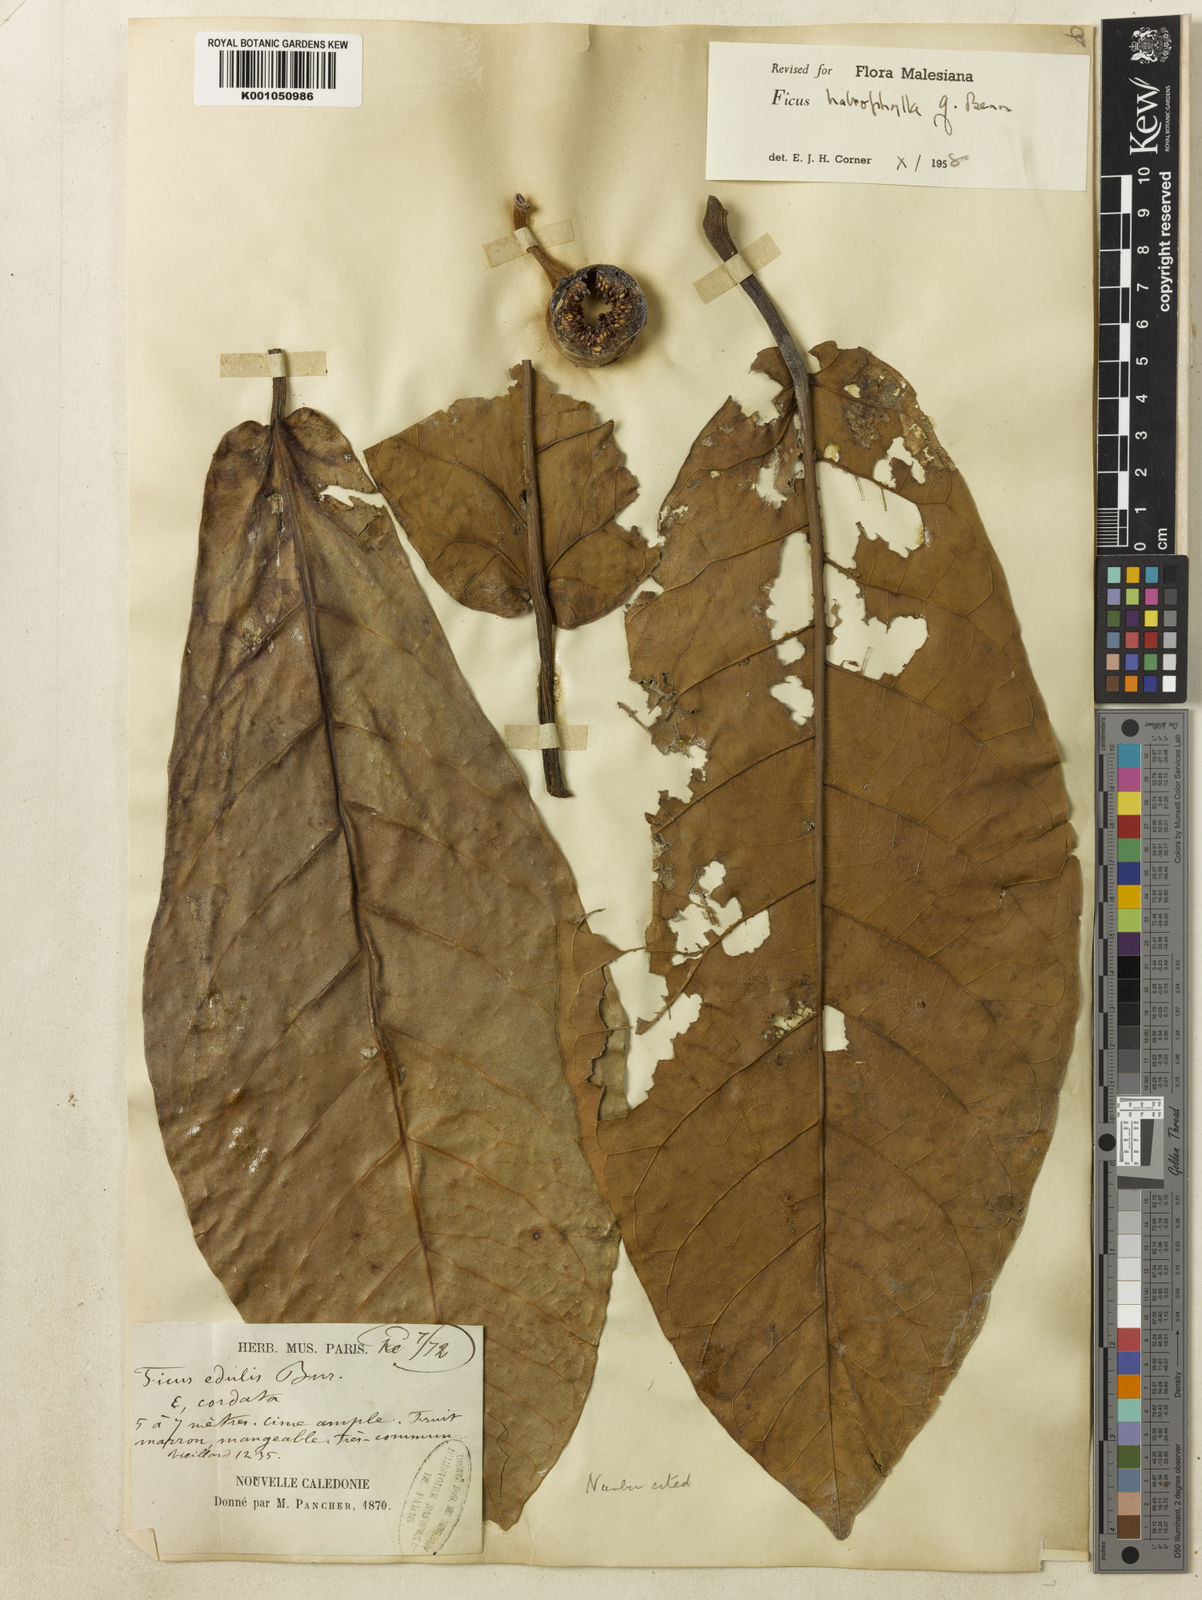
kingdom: Plantae
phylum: Tracheophyta
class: Magnoliopsida
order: Rosales
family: Moraceae
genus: Ficus
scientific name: Ficus
